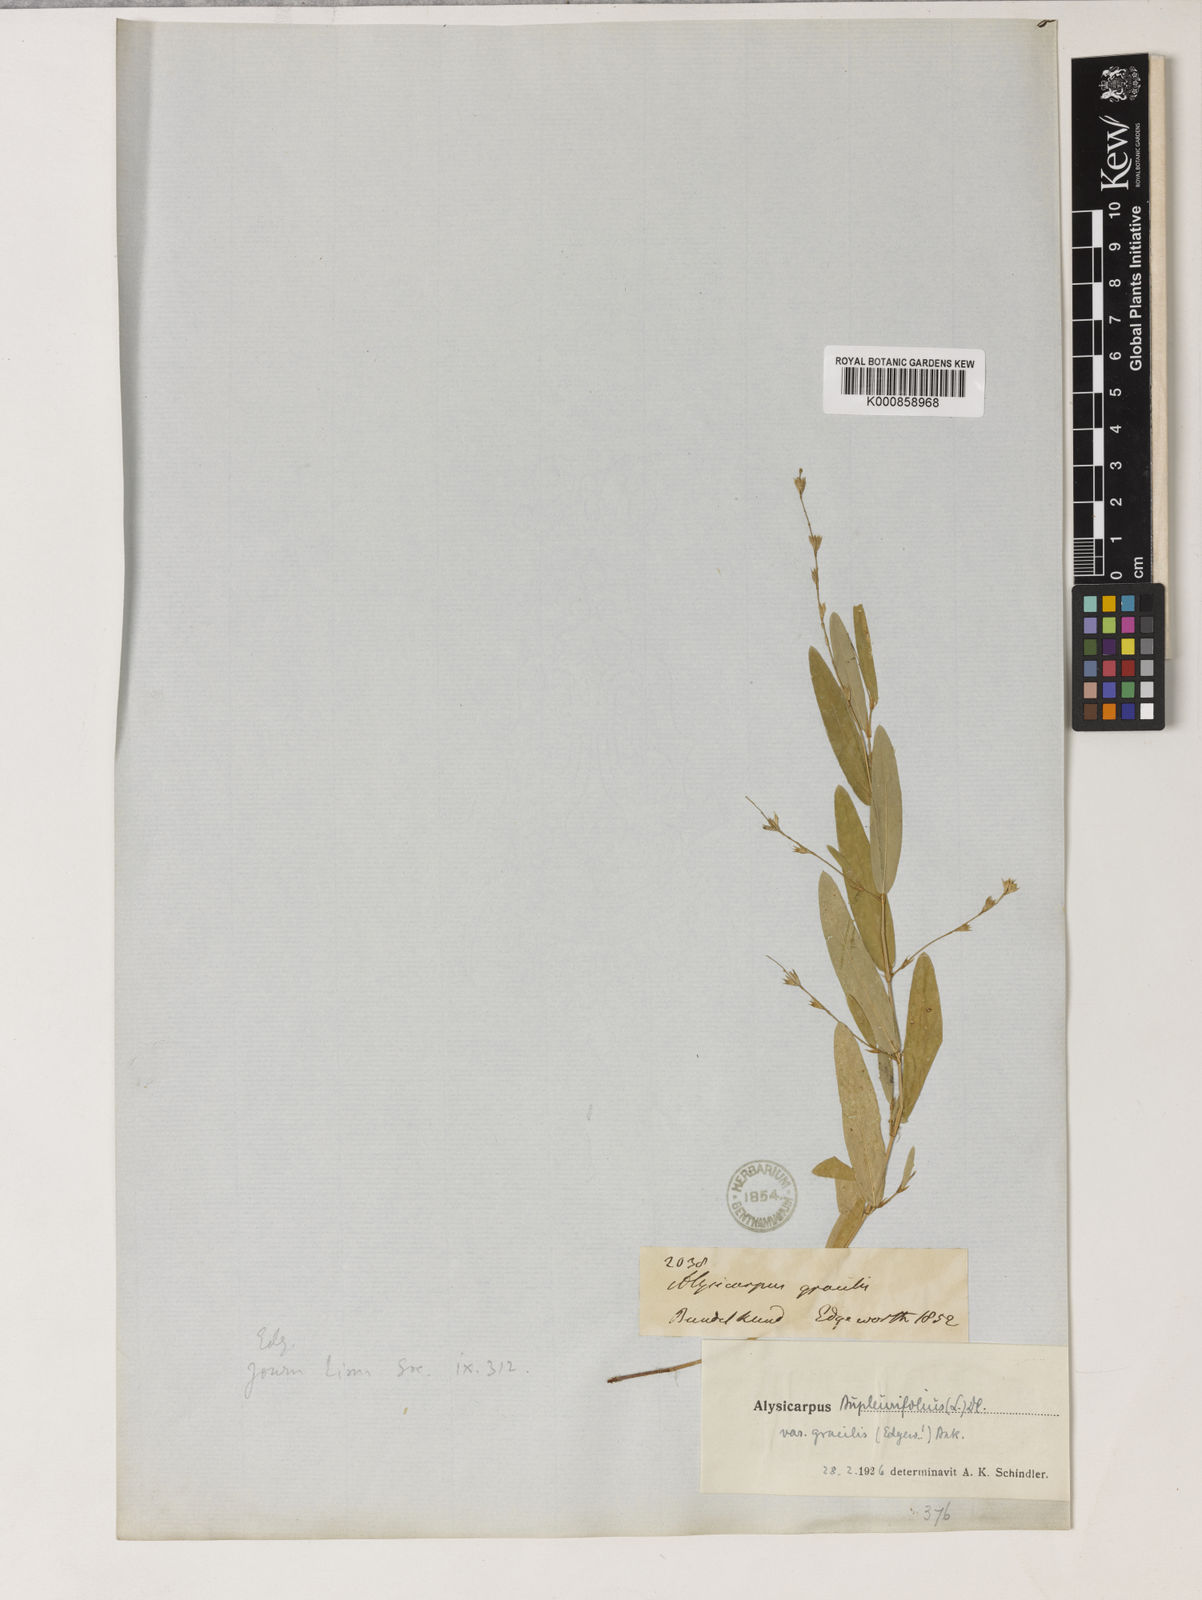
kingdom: Plantae
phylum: Tracheophyta
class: Magnoliopsida
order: Fabales
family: Fabaceae
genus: Alysicarpus
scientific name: Alysicarpus bupleurifolius
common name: Sweet alys
